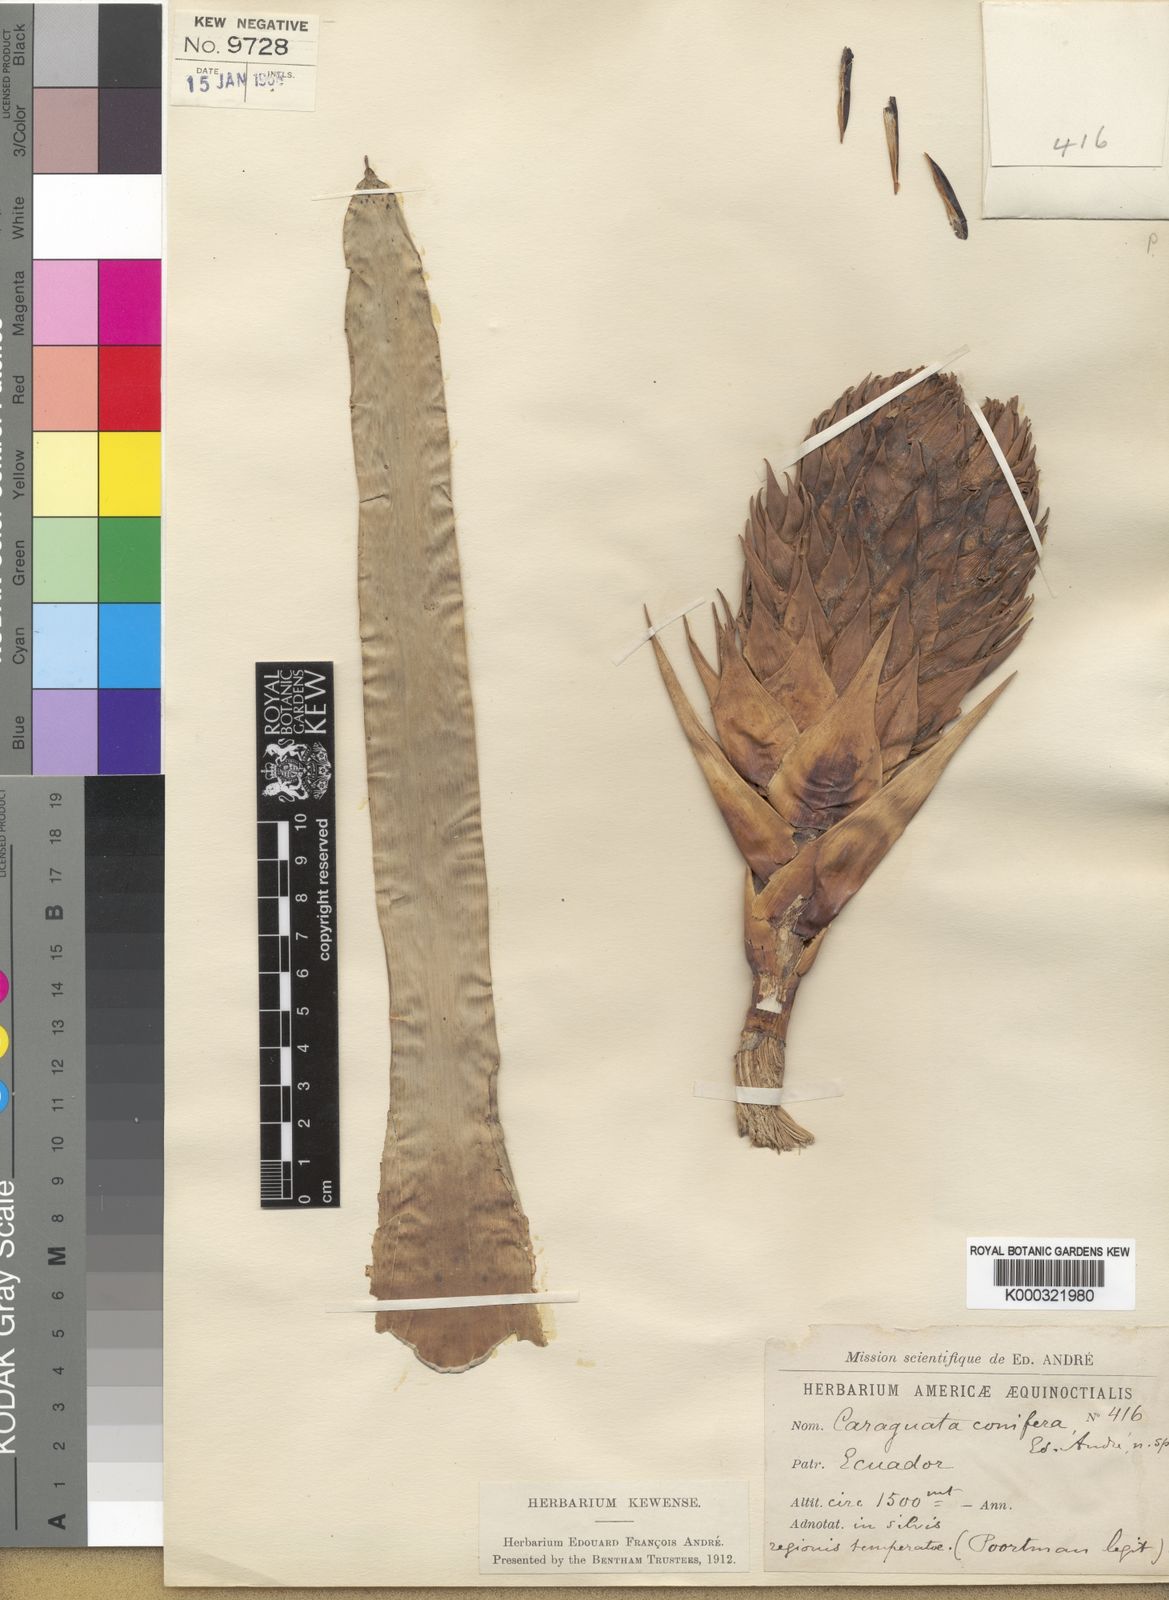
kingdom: Plantae
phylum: Tracheophyta
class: Liliopsida
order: Poales
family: Bromeliaceae
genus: Guzmania
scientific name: Guzmania conifera
